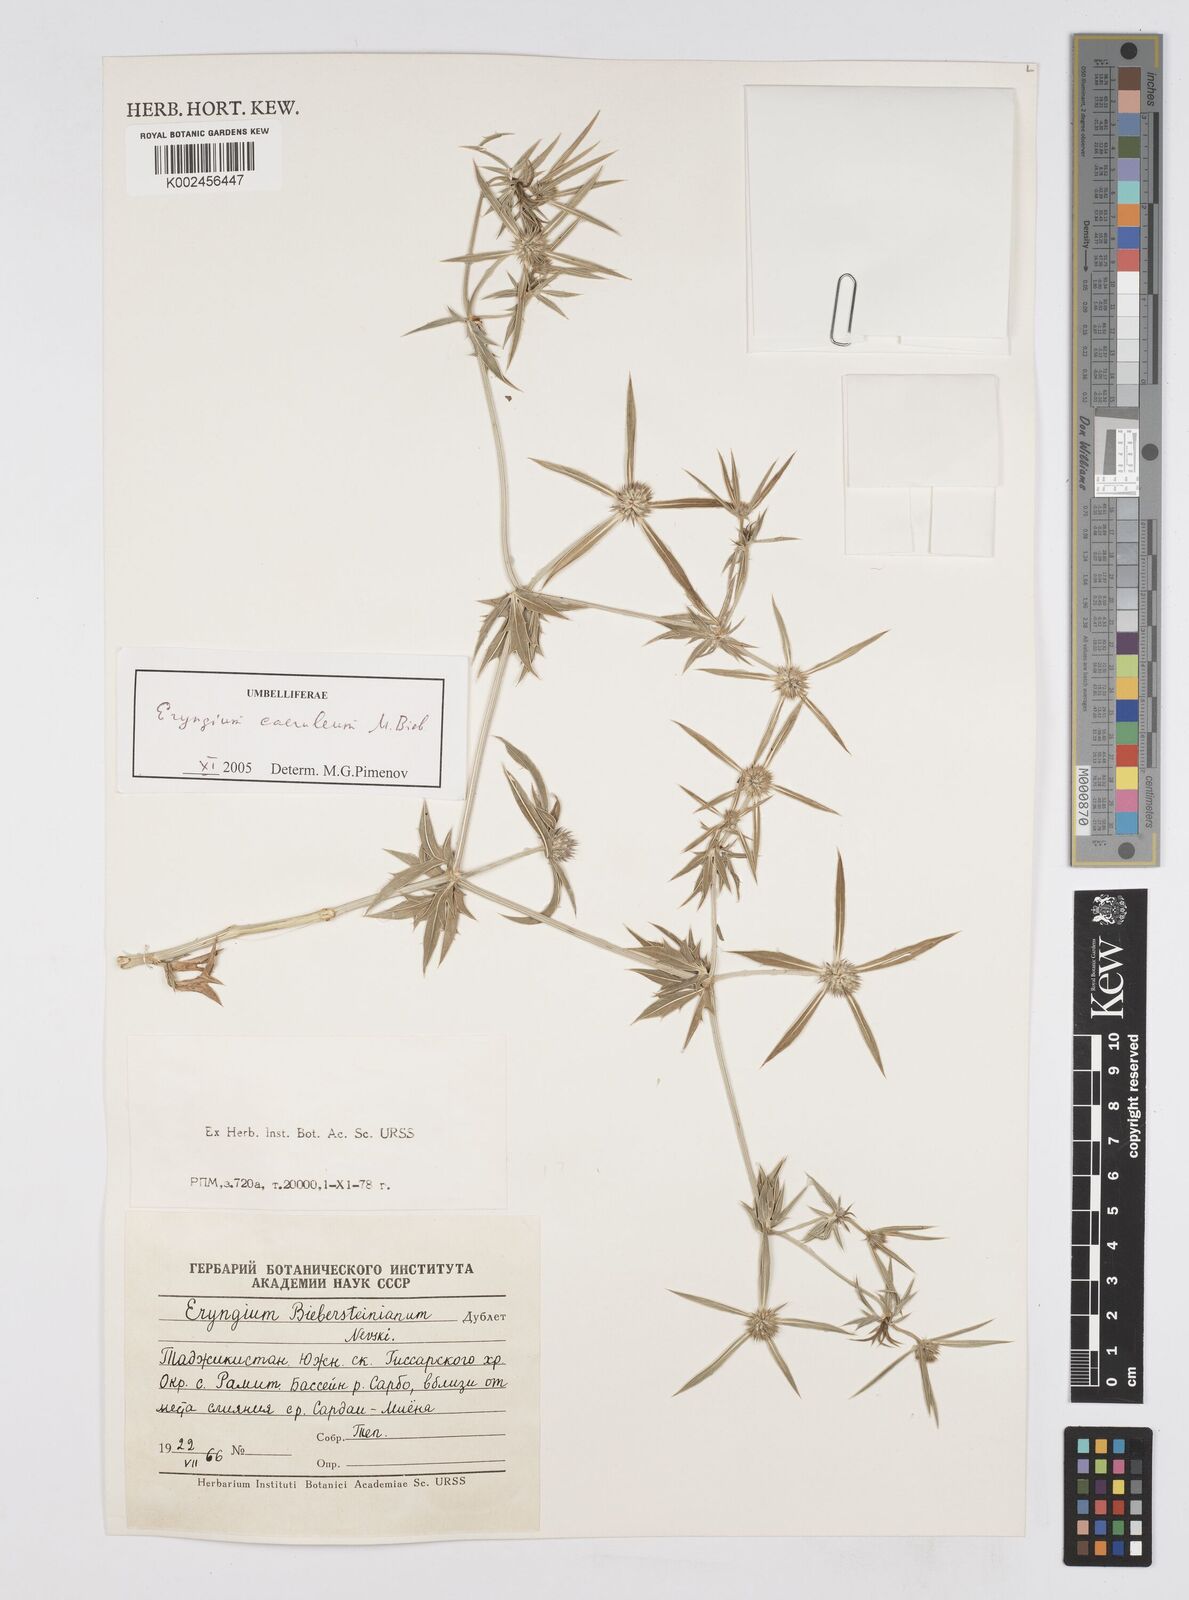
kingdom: Plantae
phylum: Tracheophyta
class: Magnoliopsida
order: Apiales
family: Apiaceae
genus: Eryngium
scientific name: Eryngium caeruleum
